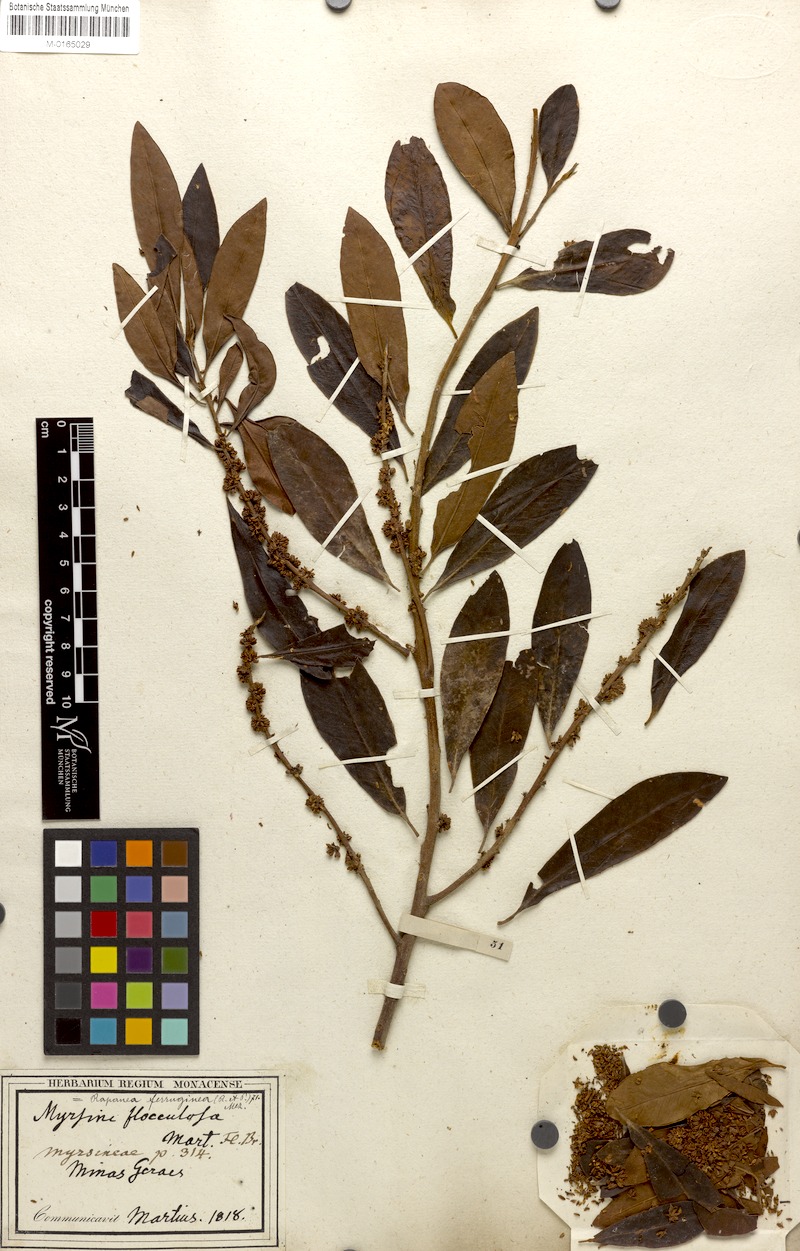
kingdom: Plantae
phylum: Tracheophyta
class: Magnoliopsida
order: Ericales
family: Primulaceae
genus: Myrsine
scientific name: Myrsine coriacea
